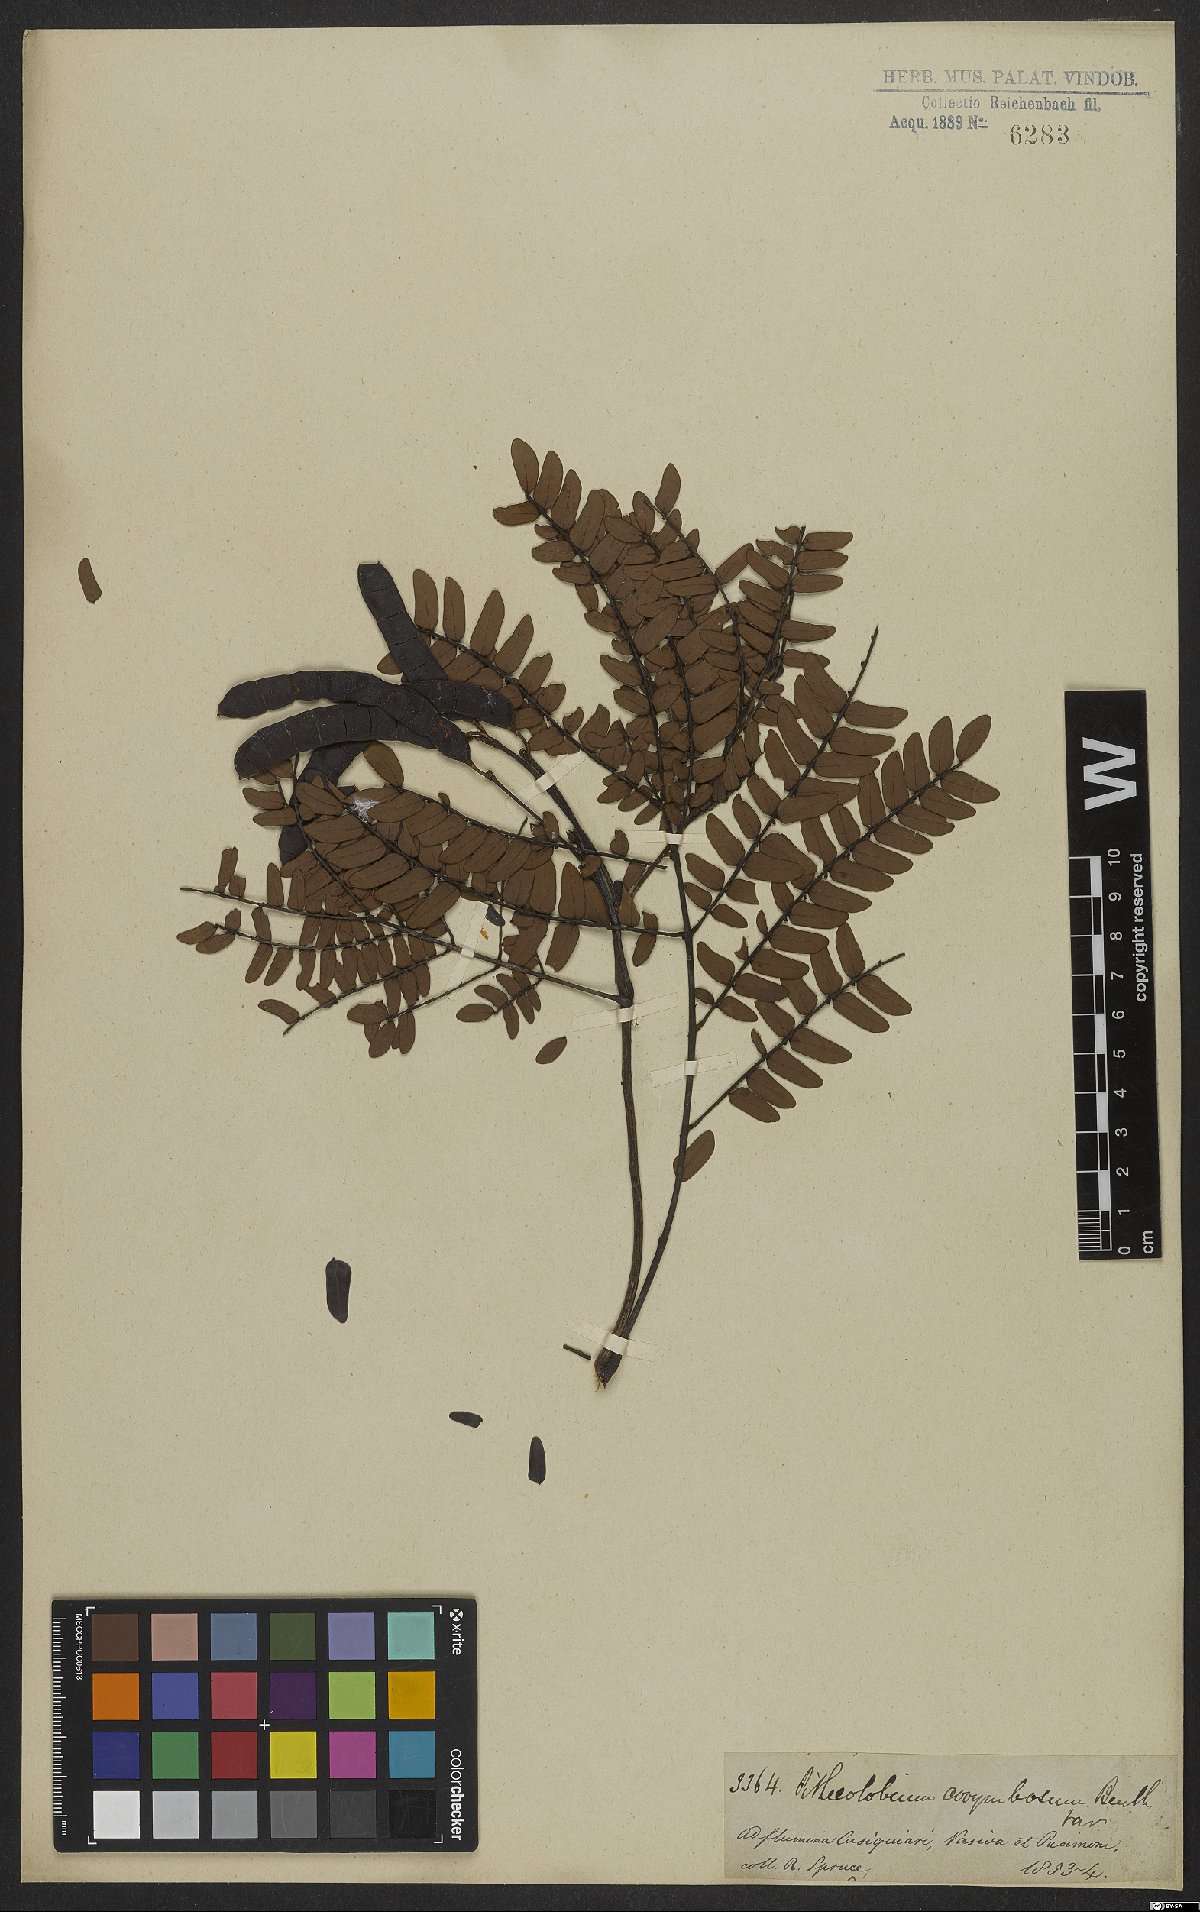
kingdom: Plantae
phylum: Tracheophyta
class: Magnoliopsida
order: Fabales
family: Fabaceae
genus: Hydrochorea
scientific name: Hydrochorea corymbosa
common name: Swamp manariballi
